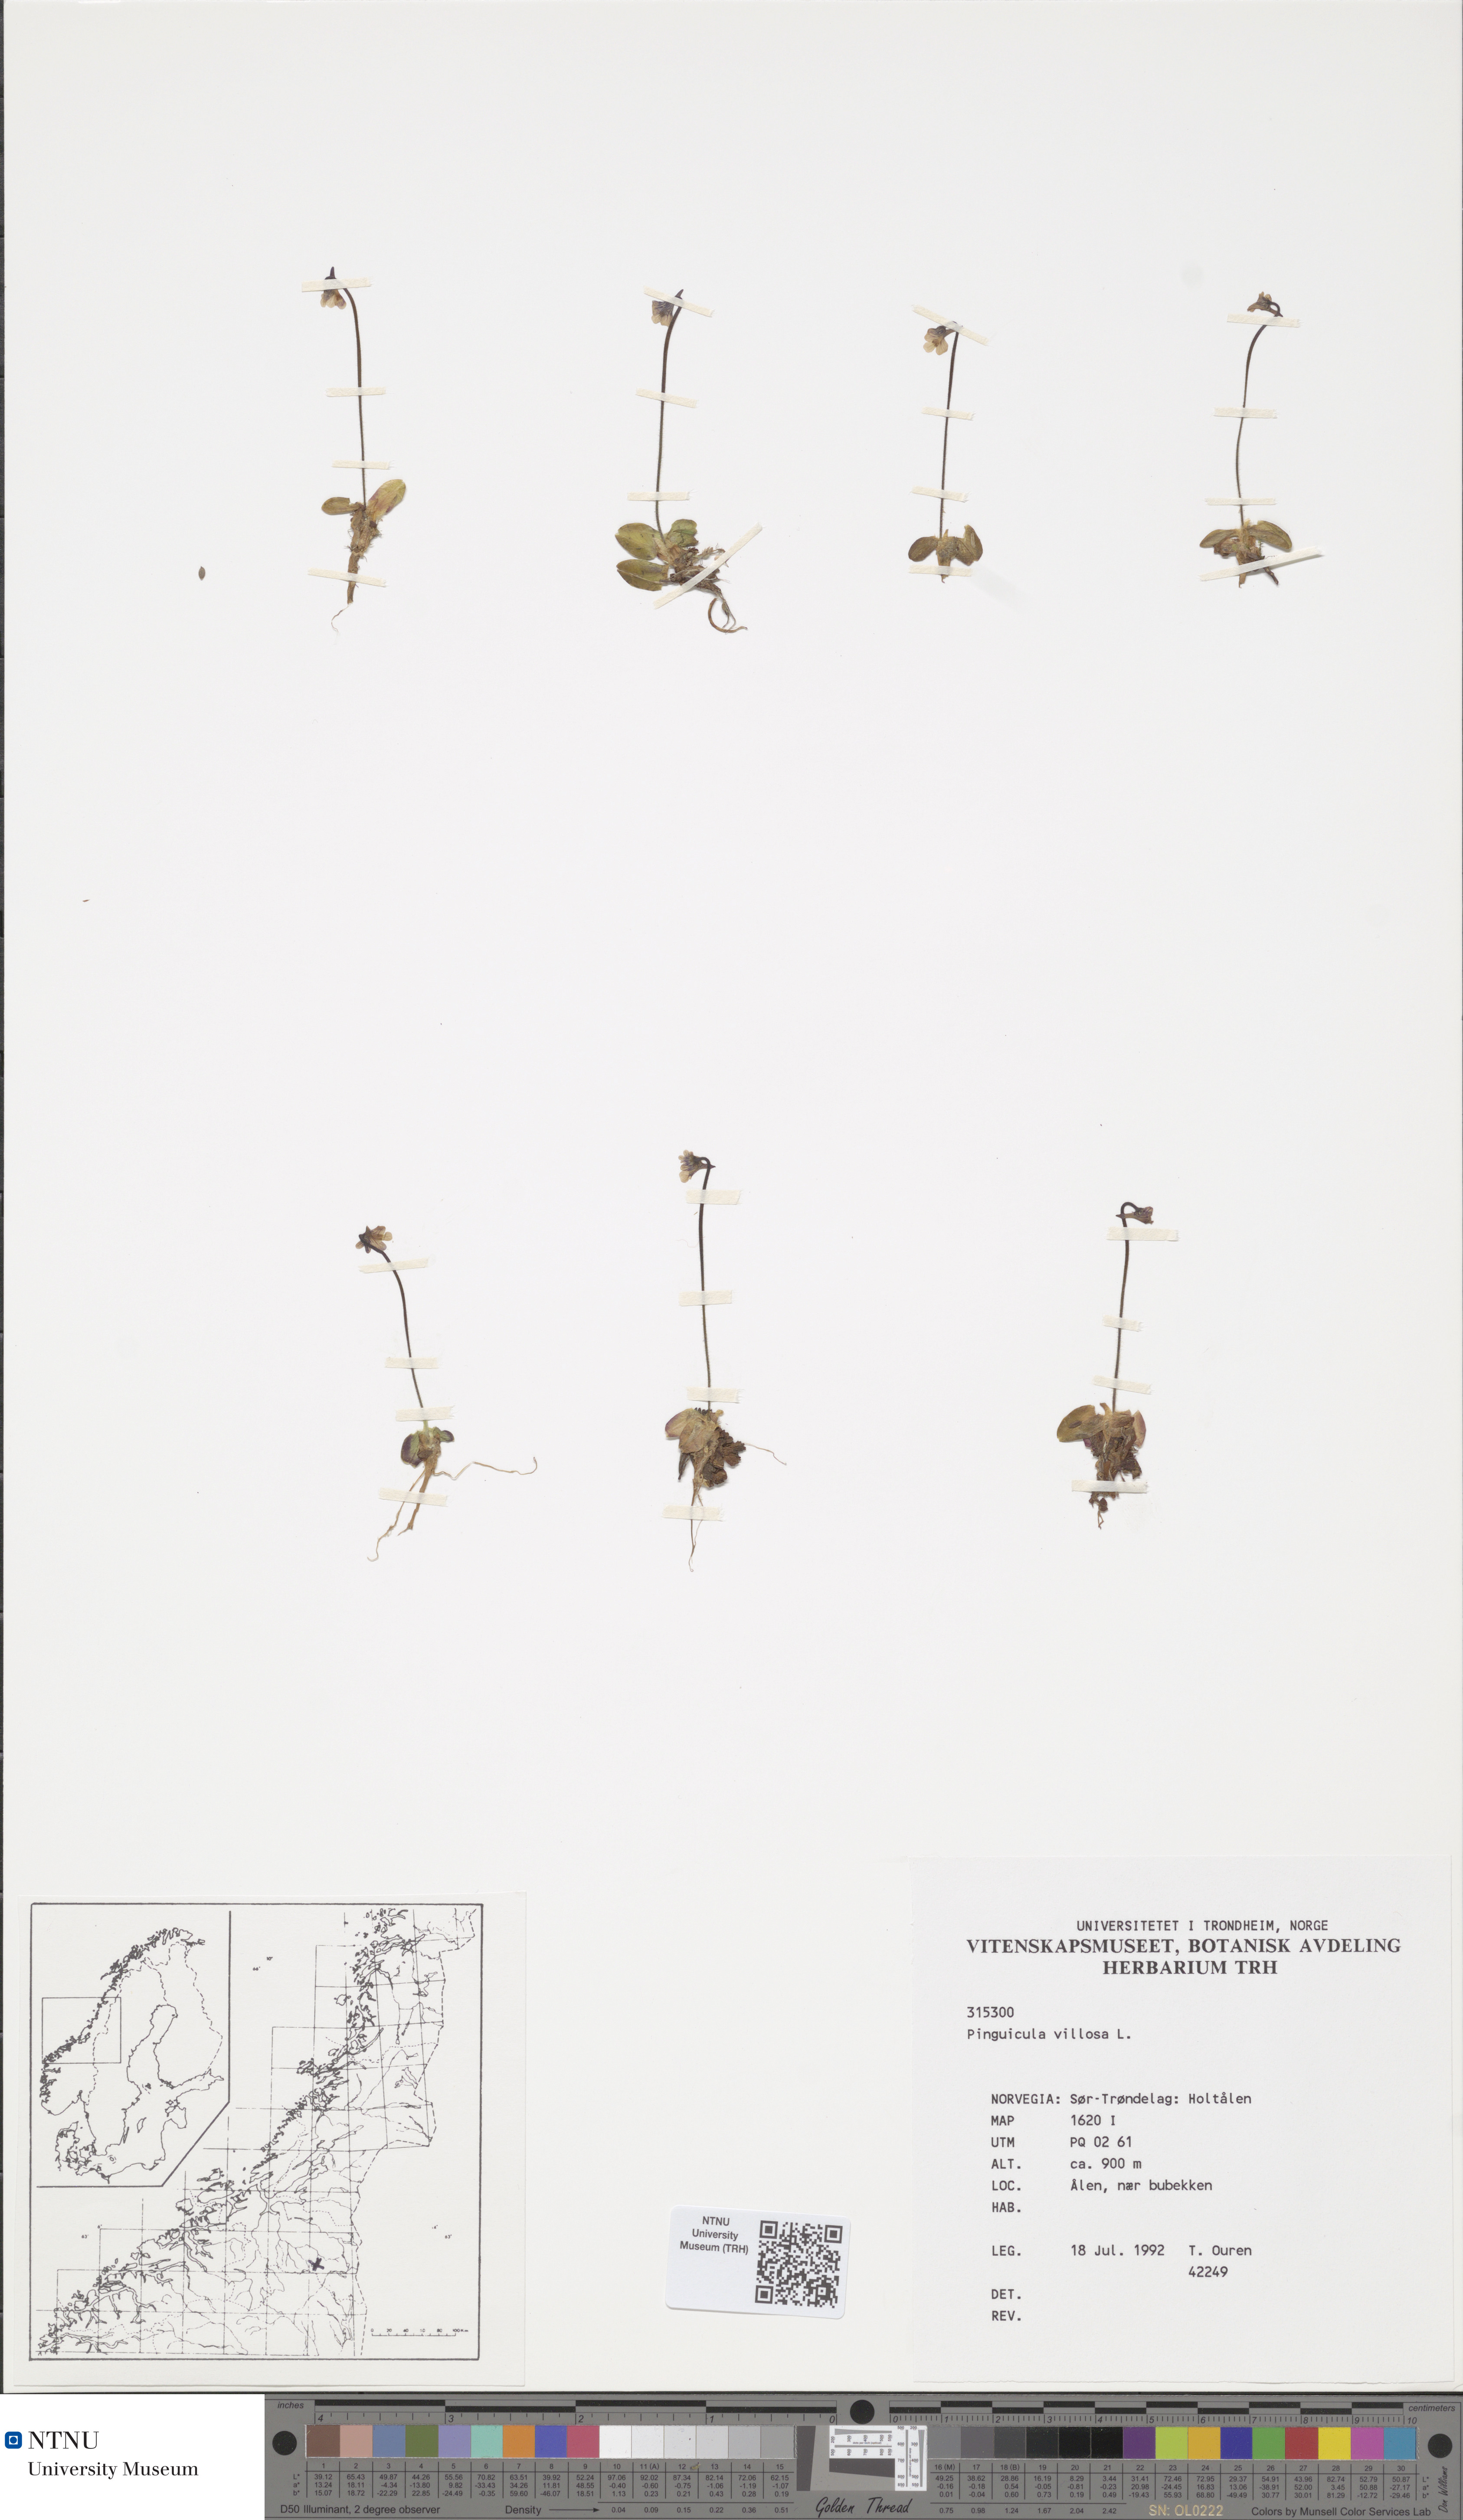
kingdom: Plantae
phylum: Tracheophyta
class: Magnoliopsida
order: Lamiales
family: Lentibulariaceae
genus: Pinguicula
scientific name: Pinguicula villosa
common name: Hairy butterwort
